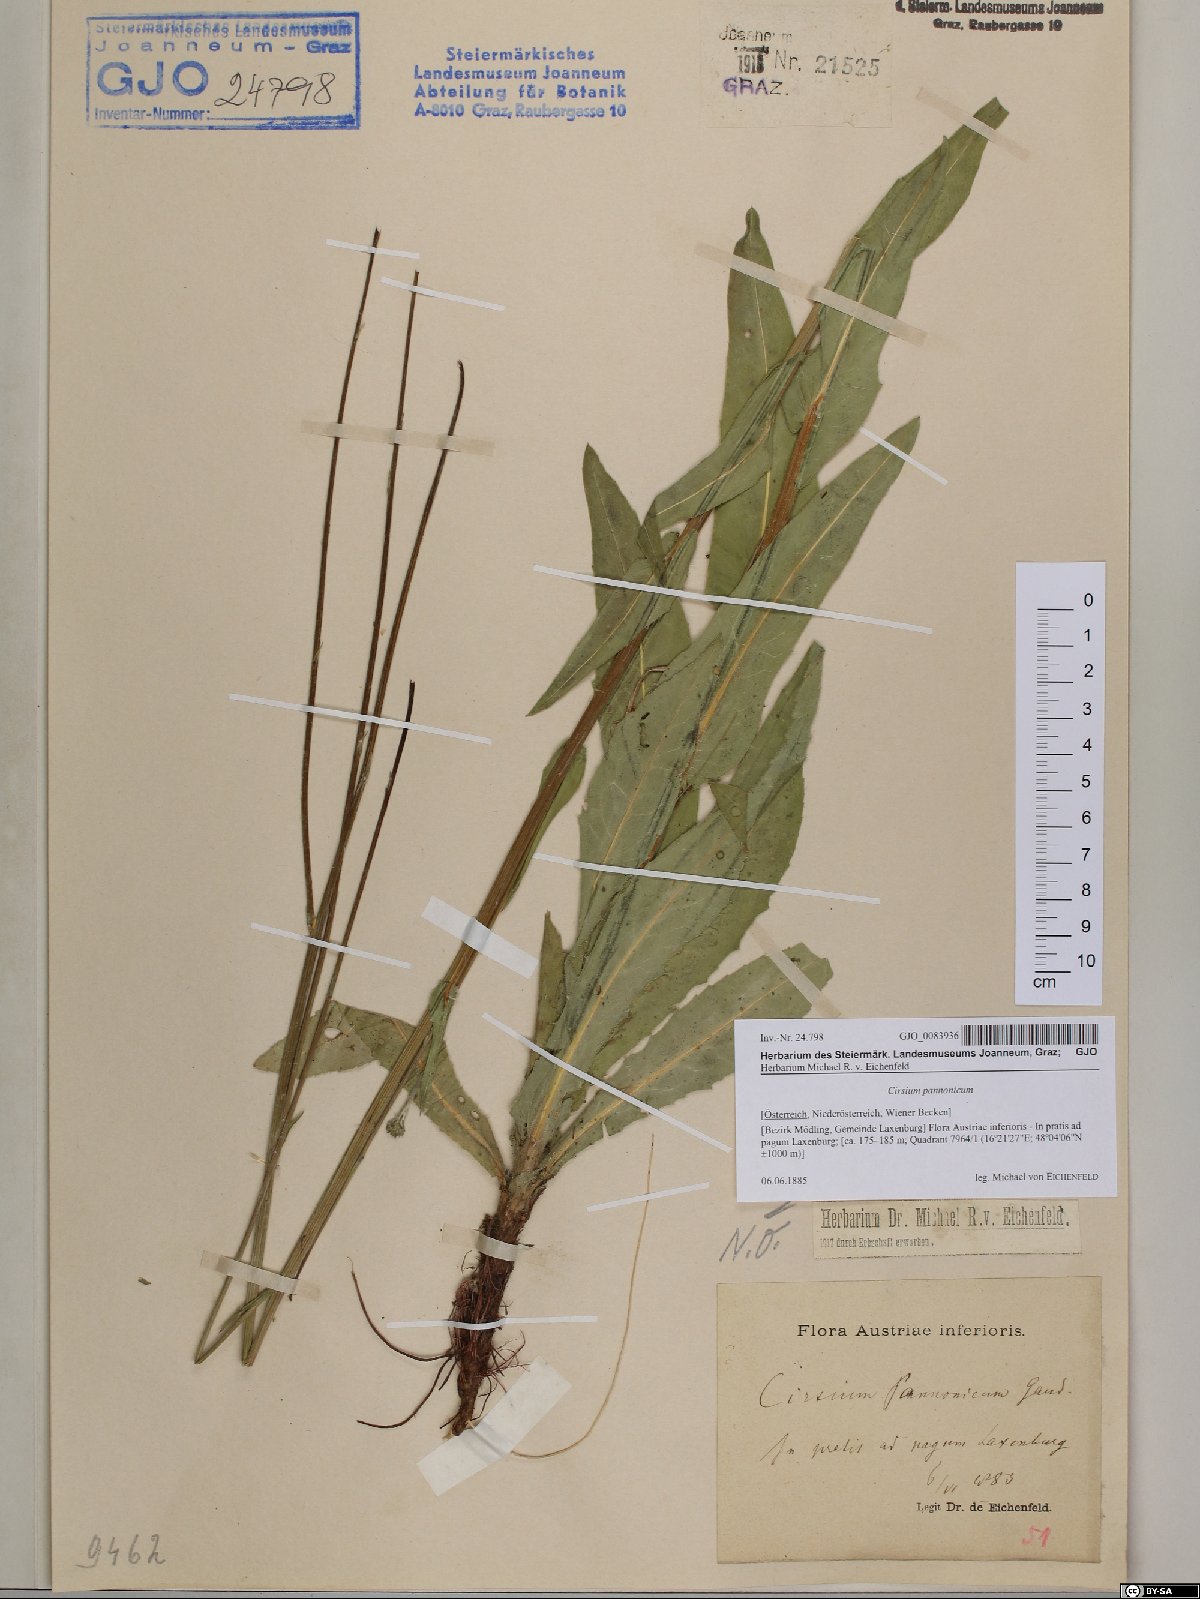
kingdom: Plantae
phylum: Tracheophyta
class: Magnoliopsida
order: Asterales
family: Asteraceae
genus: Cirsium
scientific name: Cirsium pannonicum
